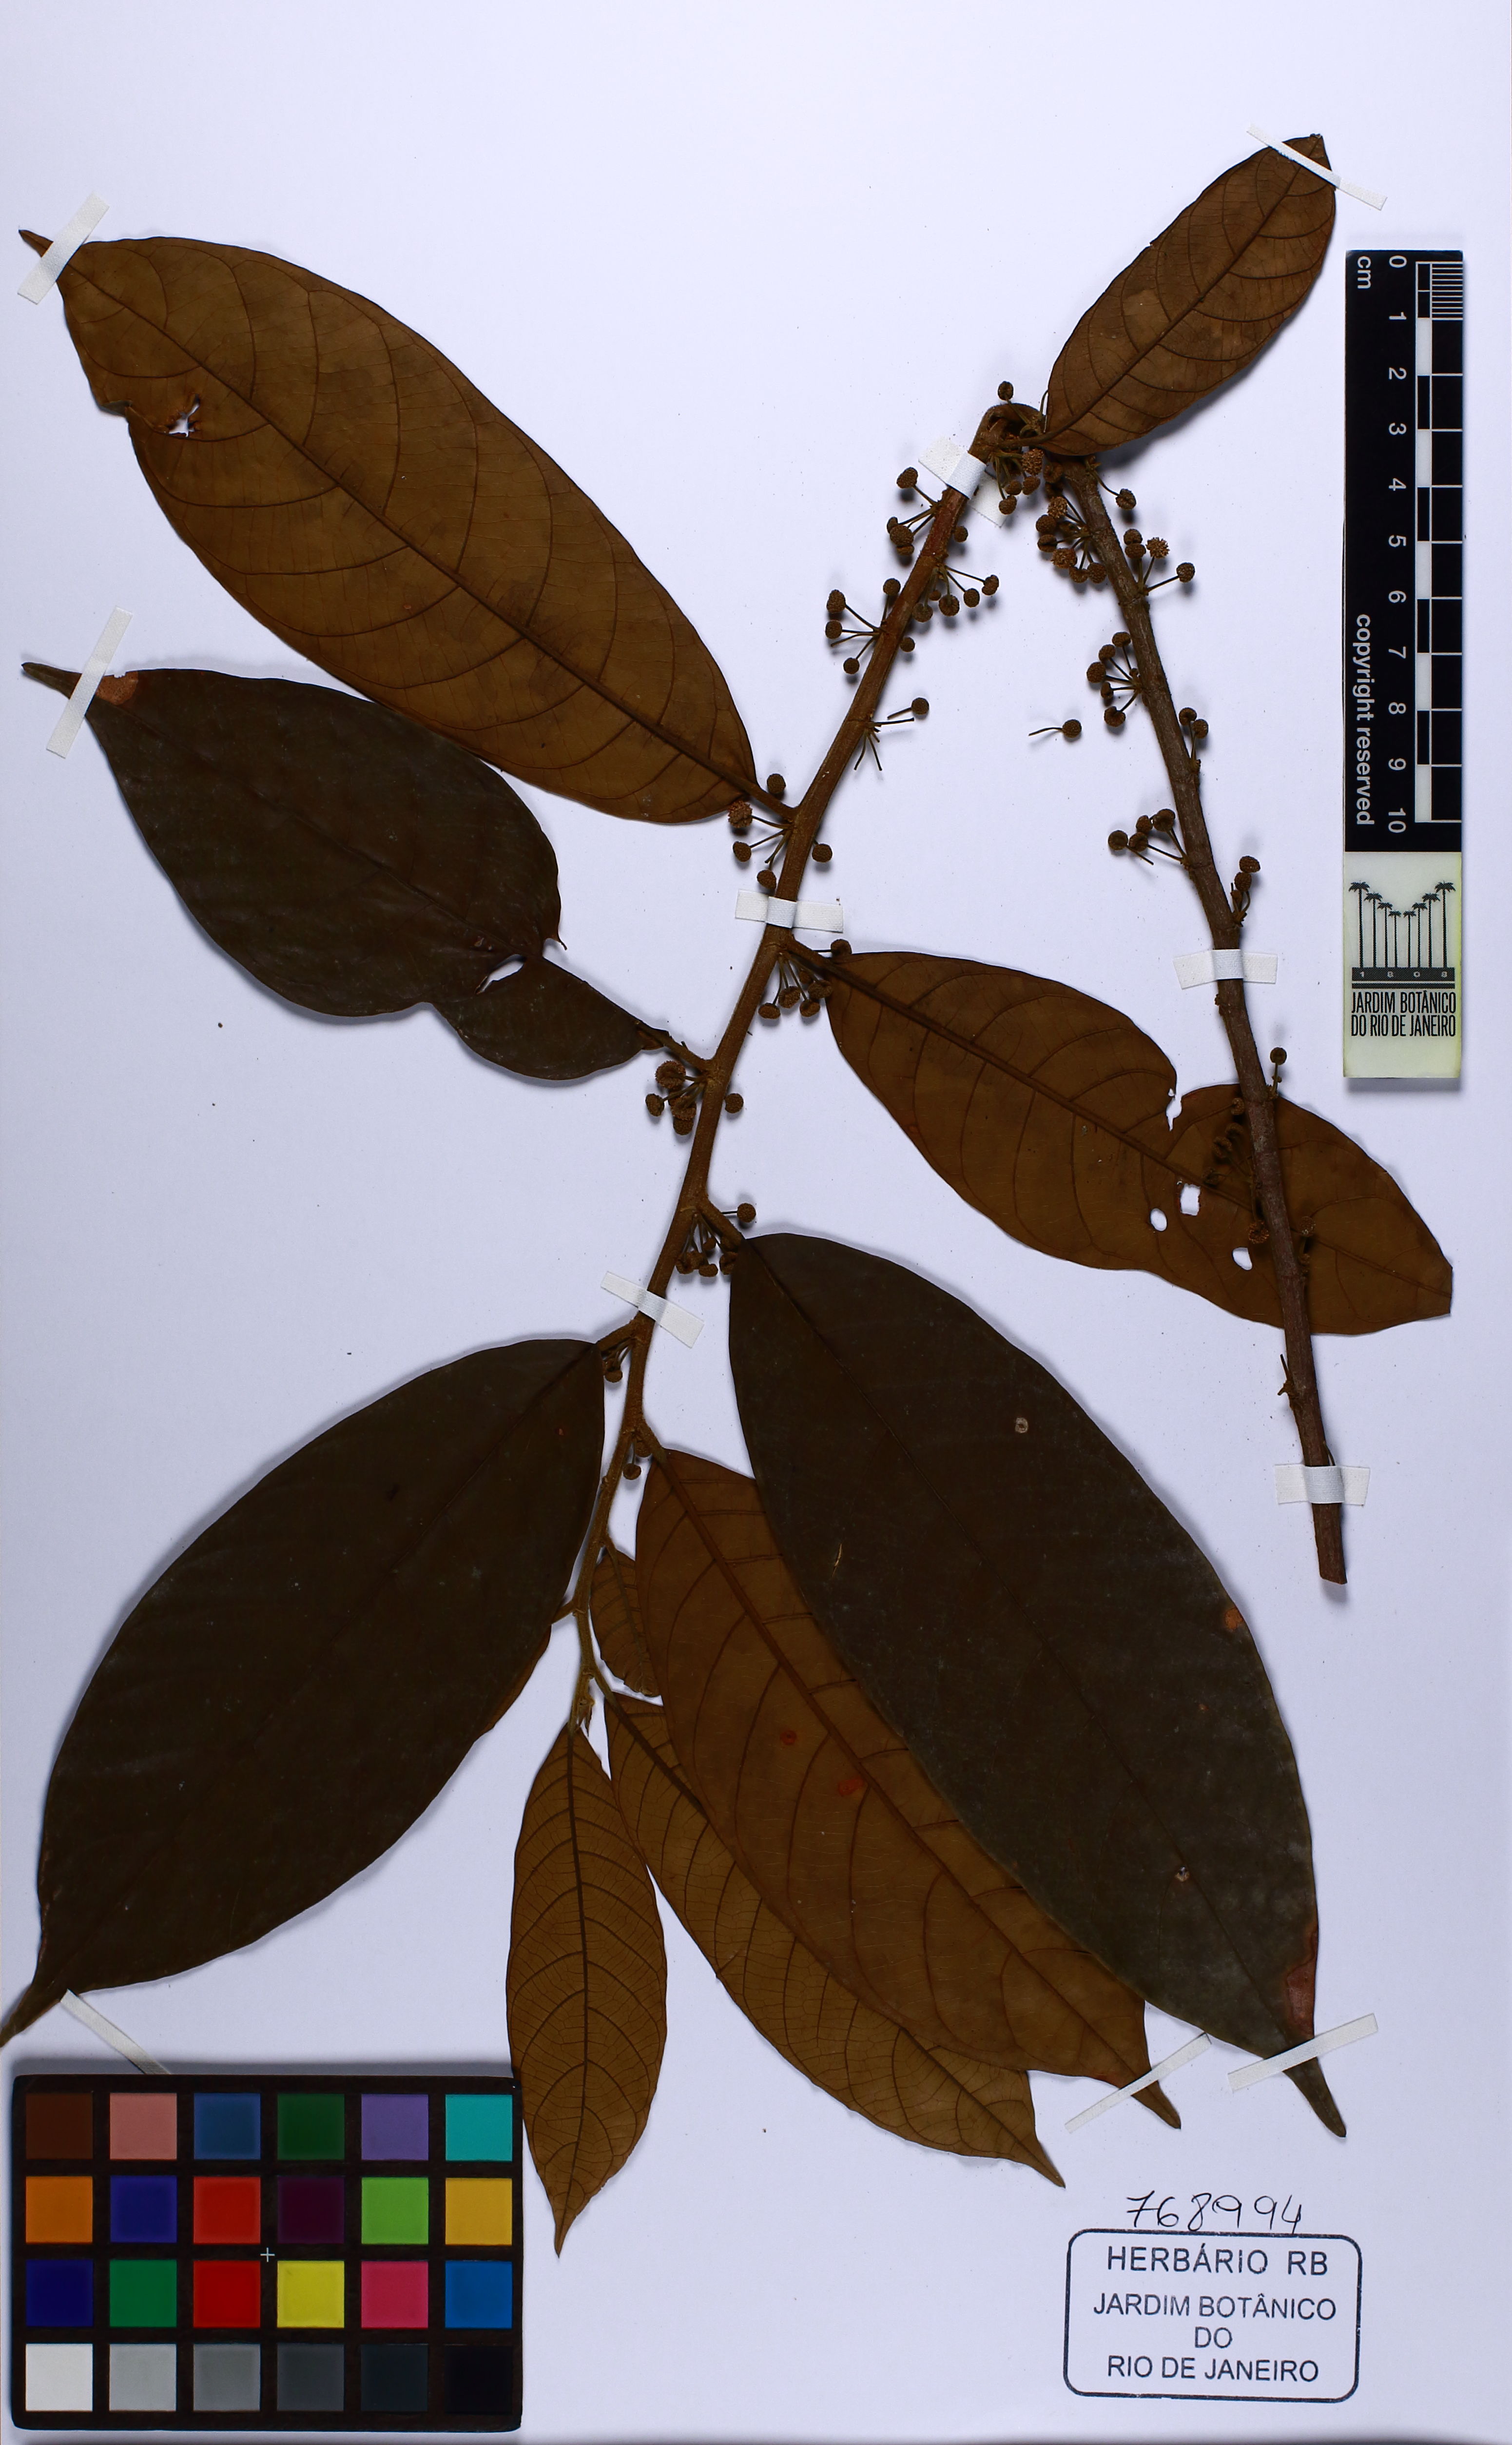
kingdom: Plantae
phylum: Tracheophyta
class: Magnoliopsida
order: Rosales
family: Moraceae
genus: Helicostylis
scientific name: Helicostylis tomentosa
